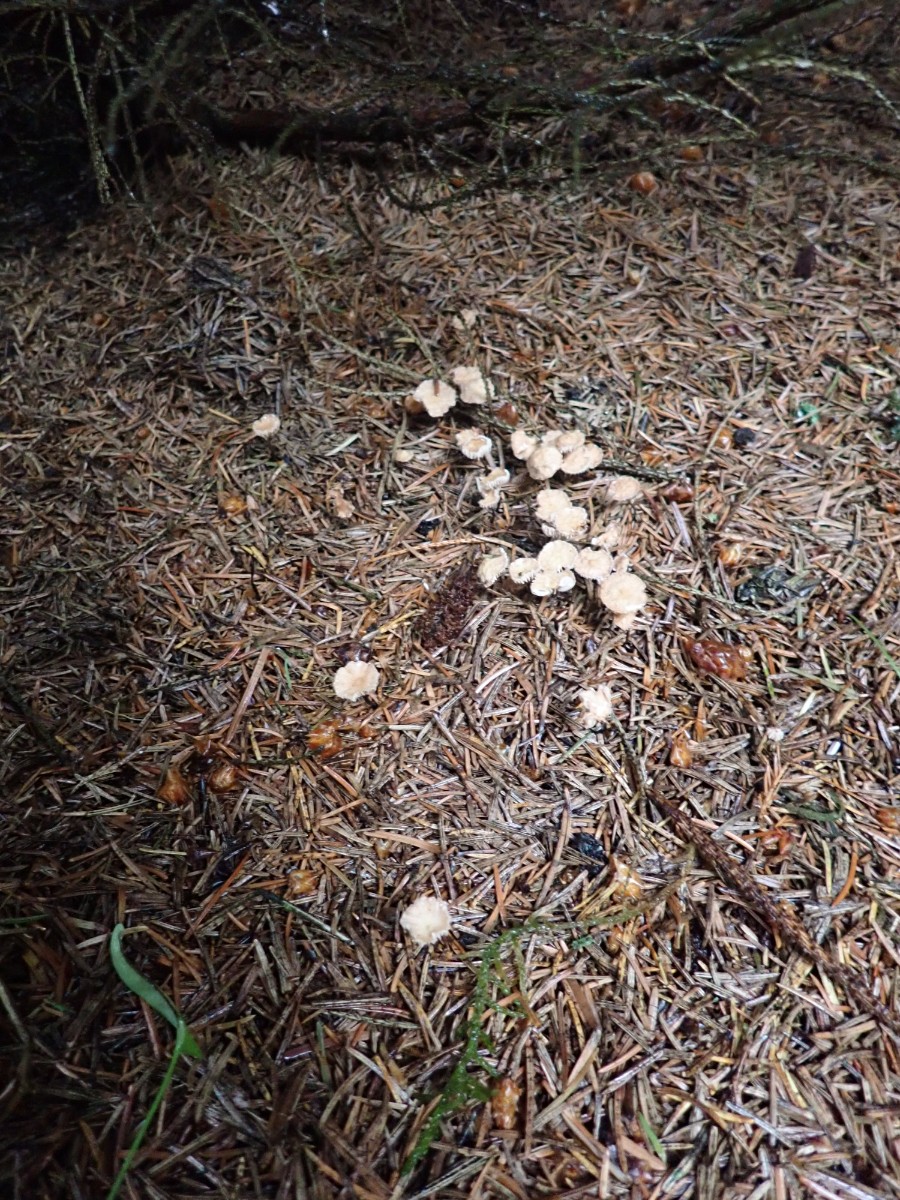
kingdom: Fungi
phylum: Basidiomycota
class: Agaricomycetes
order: Agaricales
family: Omphalotaceae
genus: Paragymnopus
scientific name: Paragymnopus perforans
